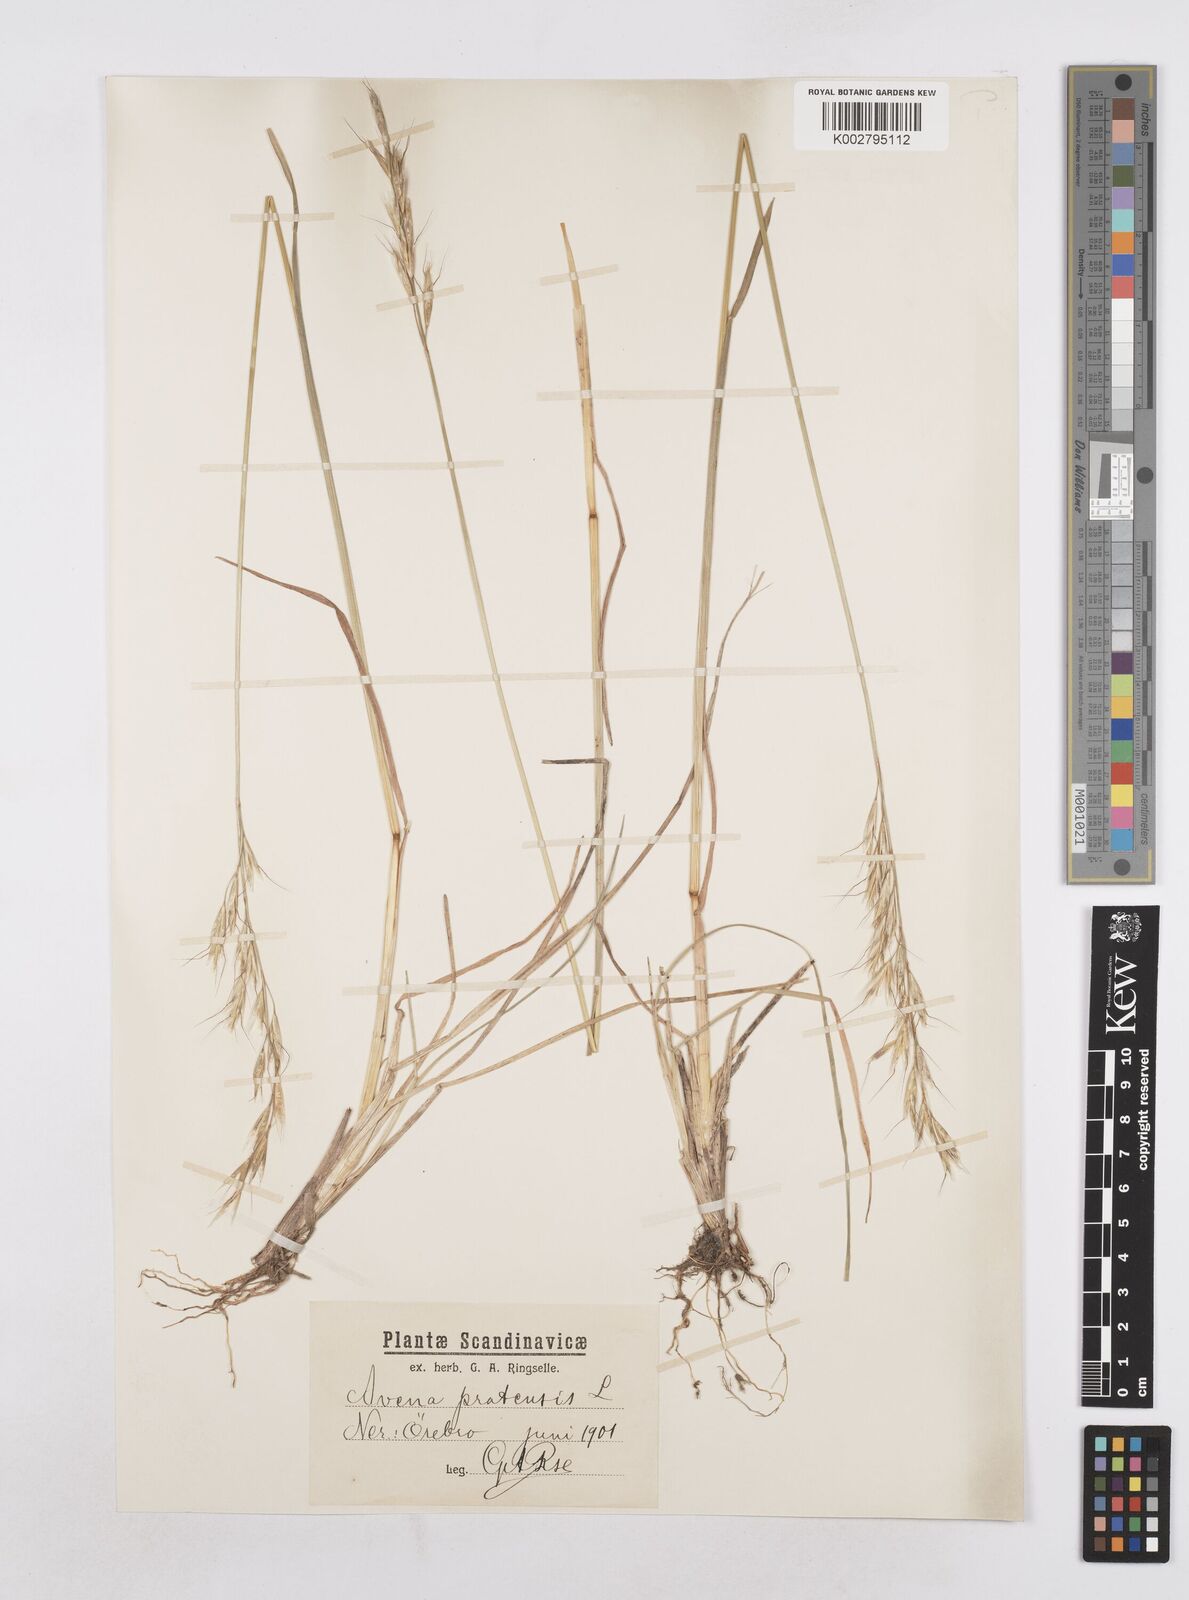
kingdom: Plantae
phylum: Tracheophyta
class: Liliopsida
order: Poales
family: Poaceae
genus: Helictochloa
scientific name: Helictochloa pratensis
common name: Meadow oat grass
